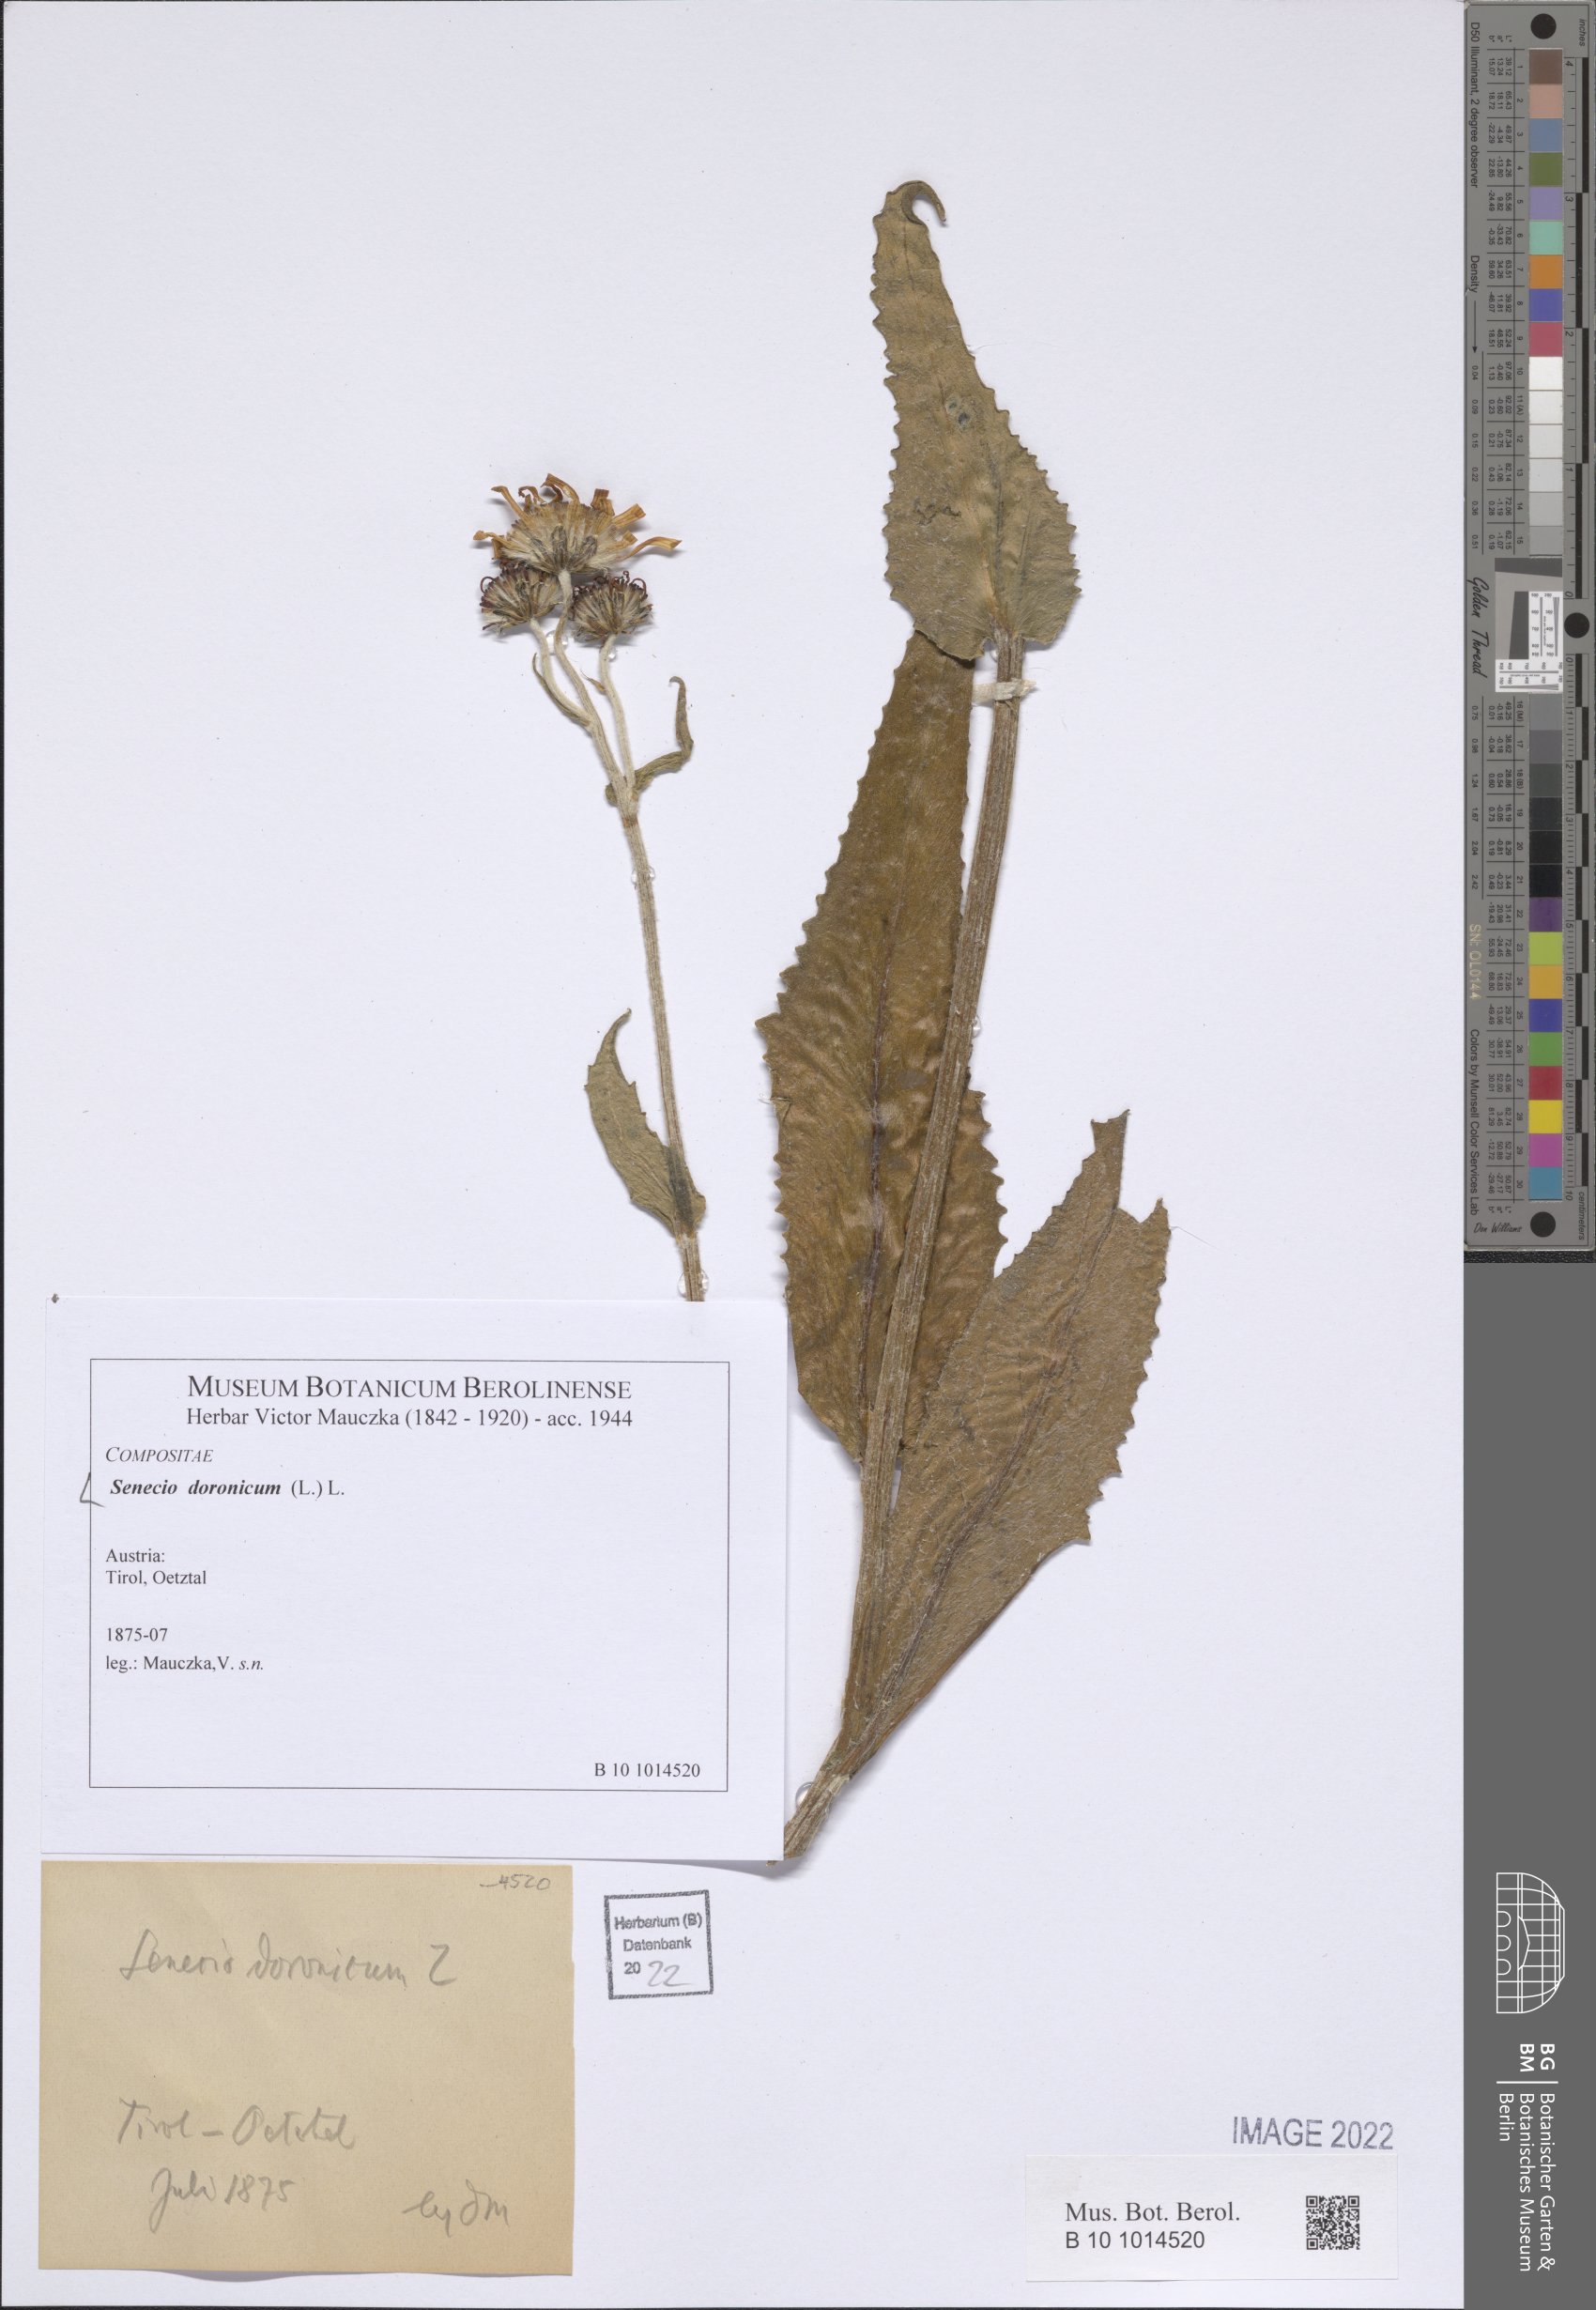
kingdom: Plantae
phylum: Tracheophyta
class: Magnoliopsida
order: Asterales
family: Asteraceae
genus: Senecio
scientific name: Senecio doronicum
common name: Chamois ragwort
